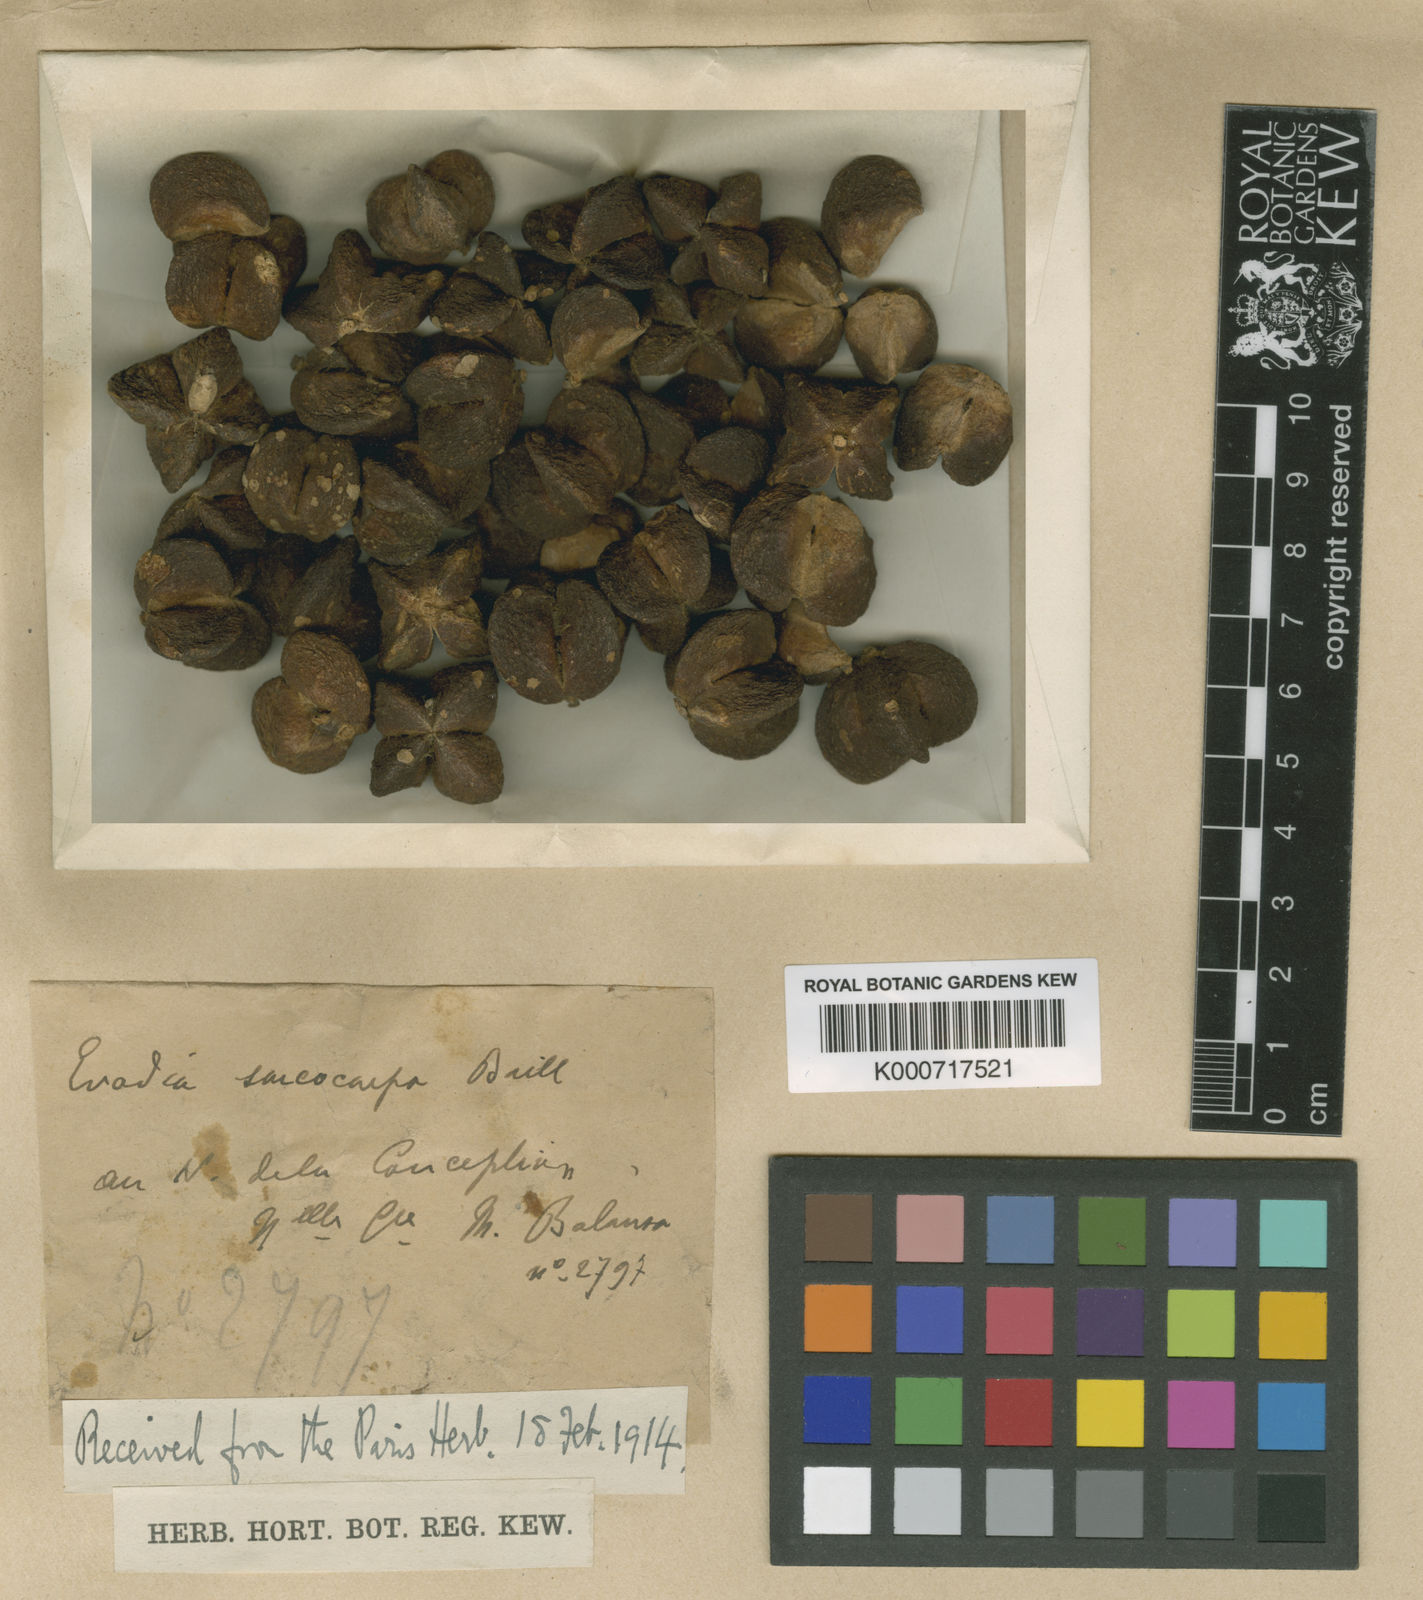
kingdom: Plantae
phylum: Tracheophyta
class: Magnoliopsida
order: Sapindales
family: Rutaceae
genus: Sarcomelicope
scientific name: Sarcomelicope sarcococca
